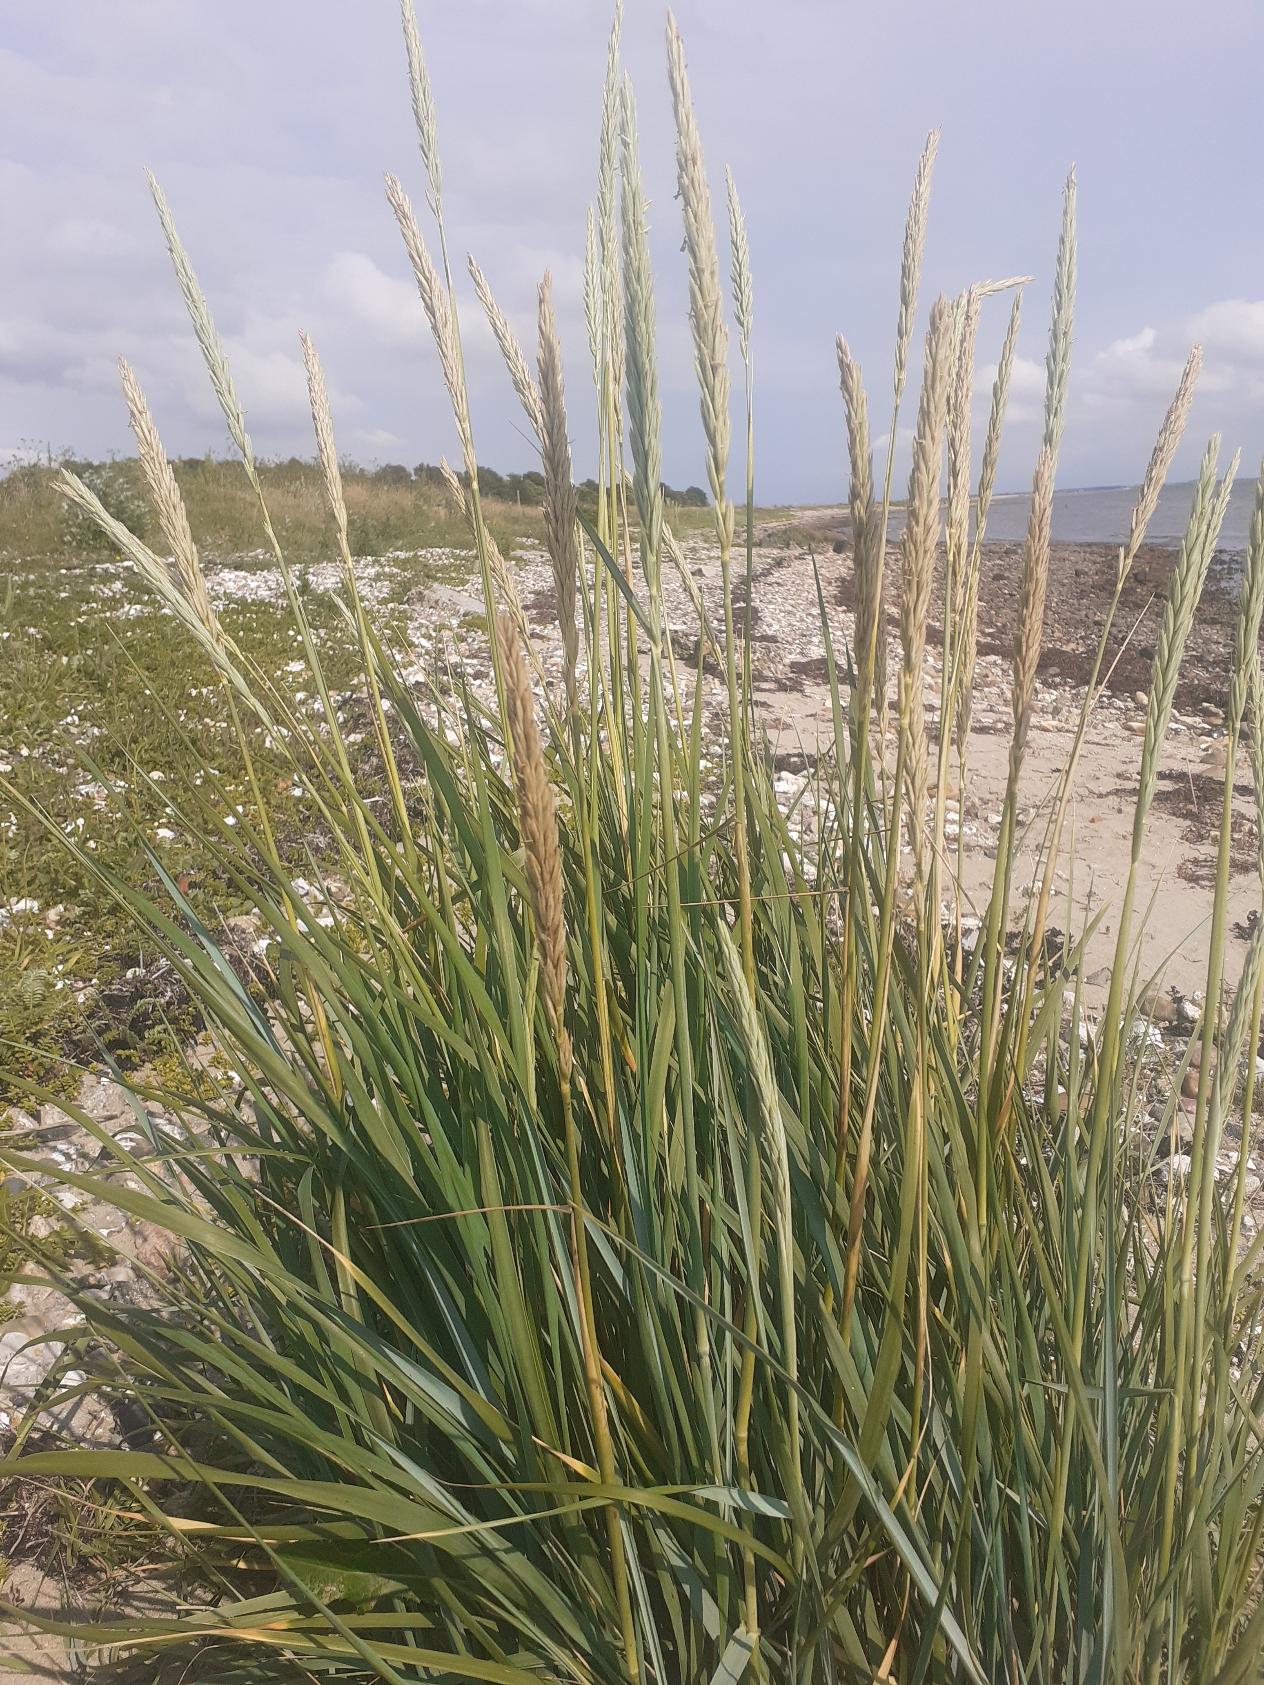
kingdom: Plantae
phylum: Tracheophyta
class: Liliopsida
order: Poales
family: Poaceae
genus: Calamagrostis
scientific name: Calamagrostis arenaria
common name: Sand-hjælme
